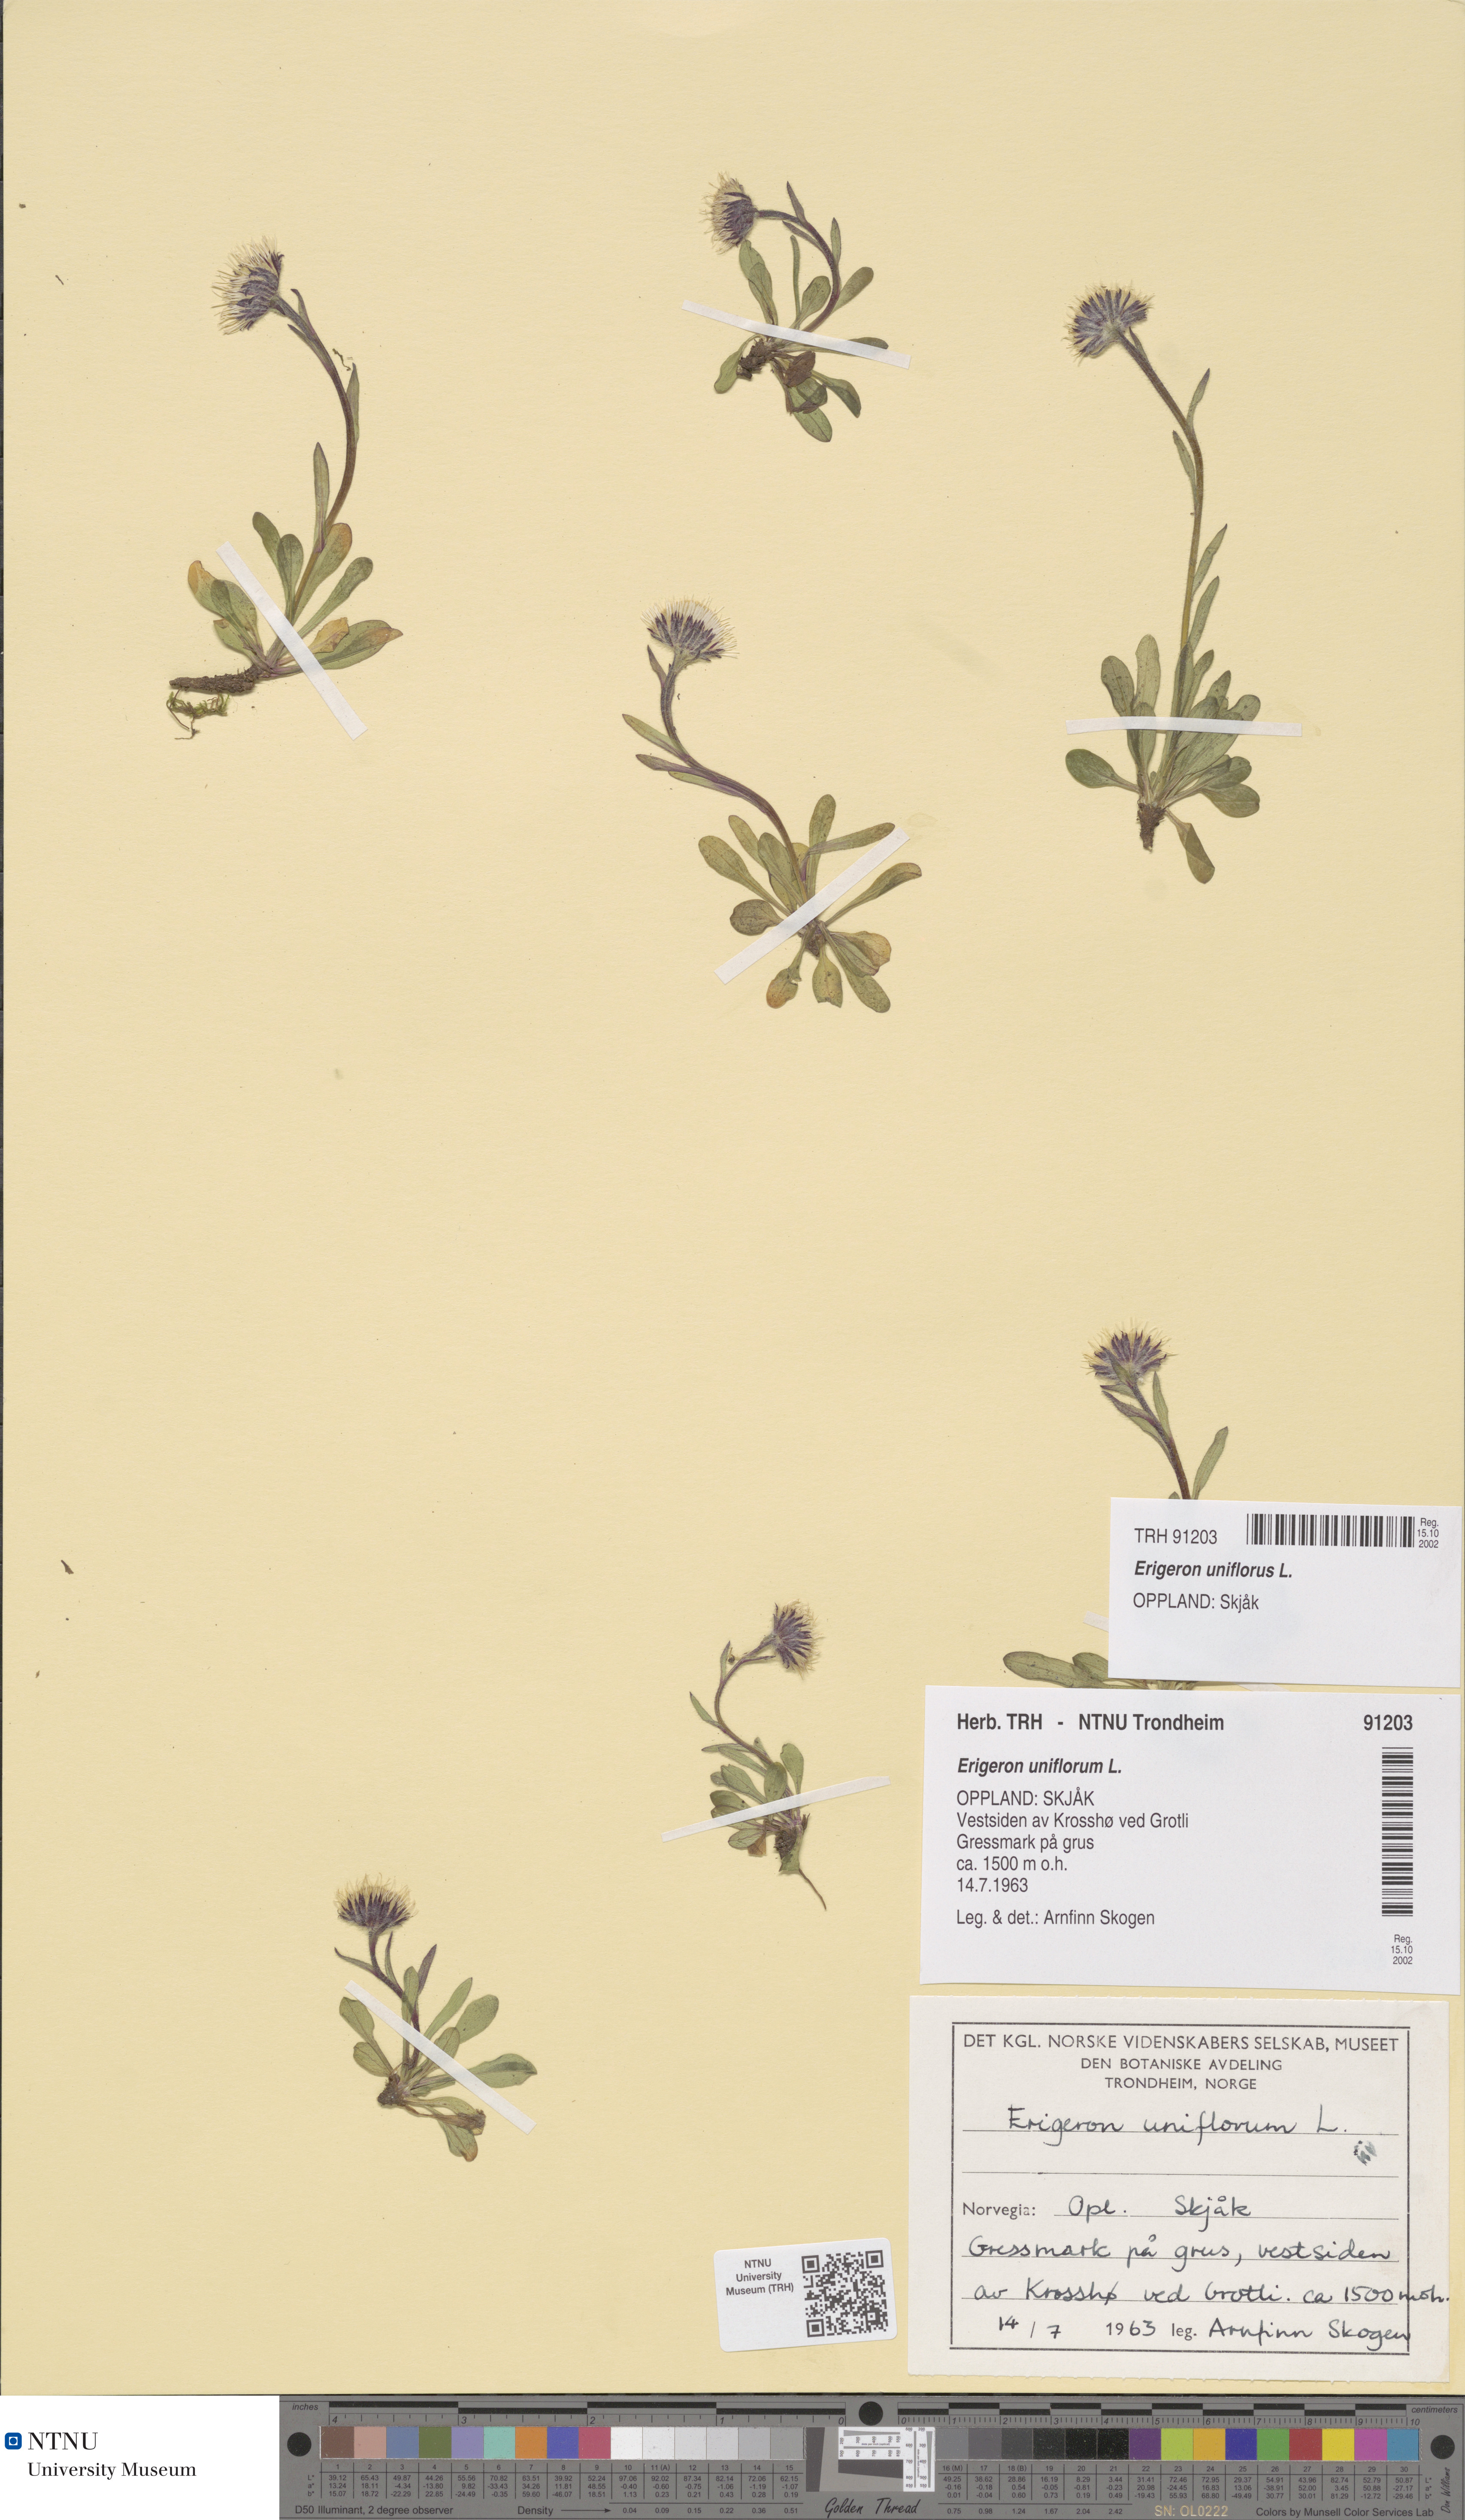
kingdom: Plantae
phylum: Tracheophyta
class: Magnoliopsida
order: Asterales
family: Asteraceae
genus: Erigeron
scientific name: Erigeron uniflorus
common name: Northern daisy
